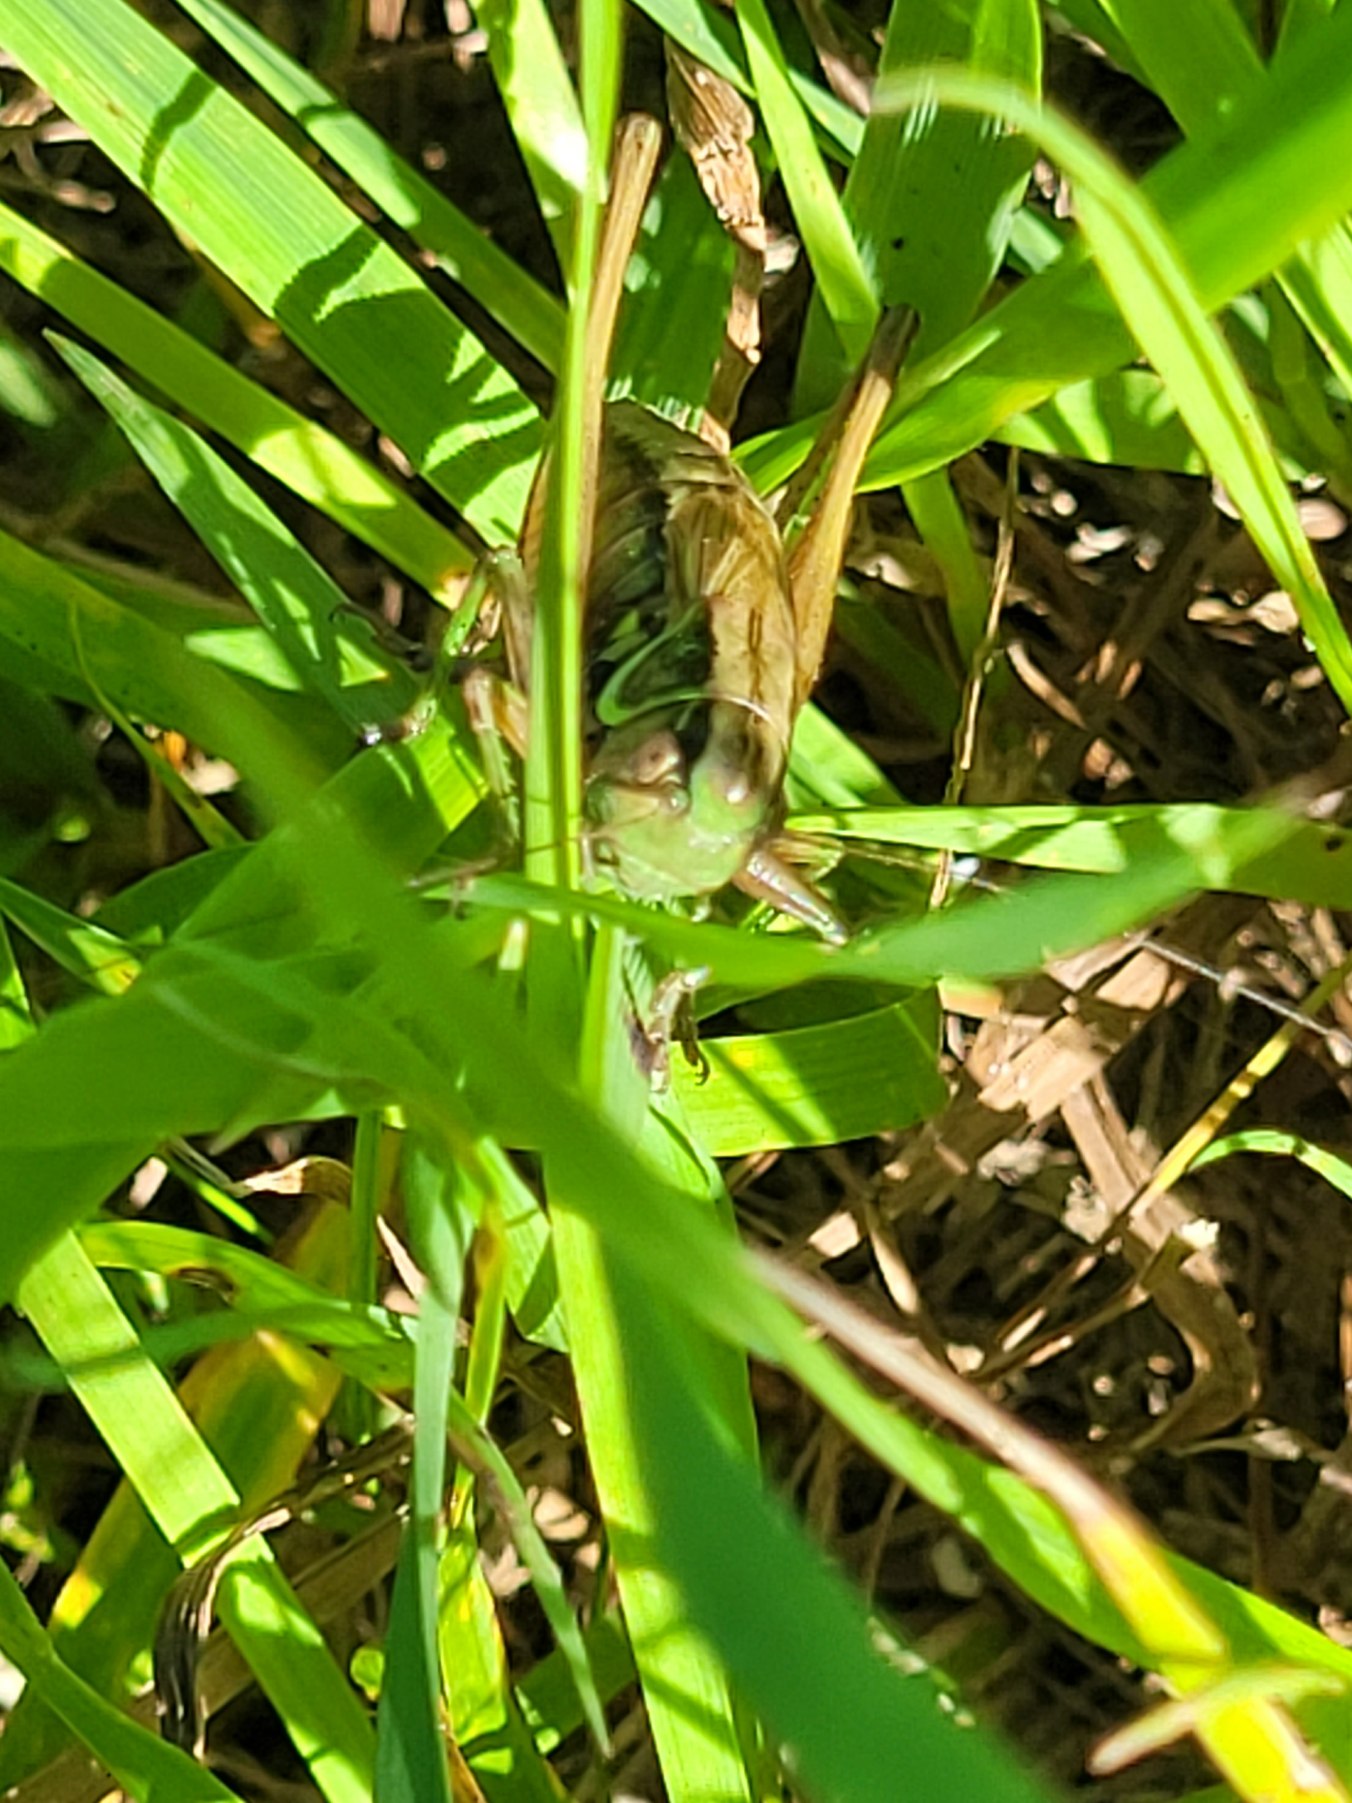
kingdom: Animalia
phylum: Arthropoda
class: Insecta
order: Orthoptera
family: Tettigoniidae
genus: Roeseliana
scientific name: Roeseliana roeselii
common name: Cikadegræshoppe
